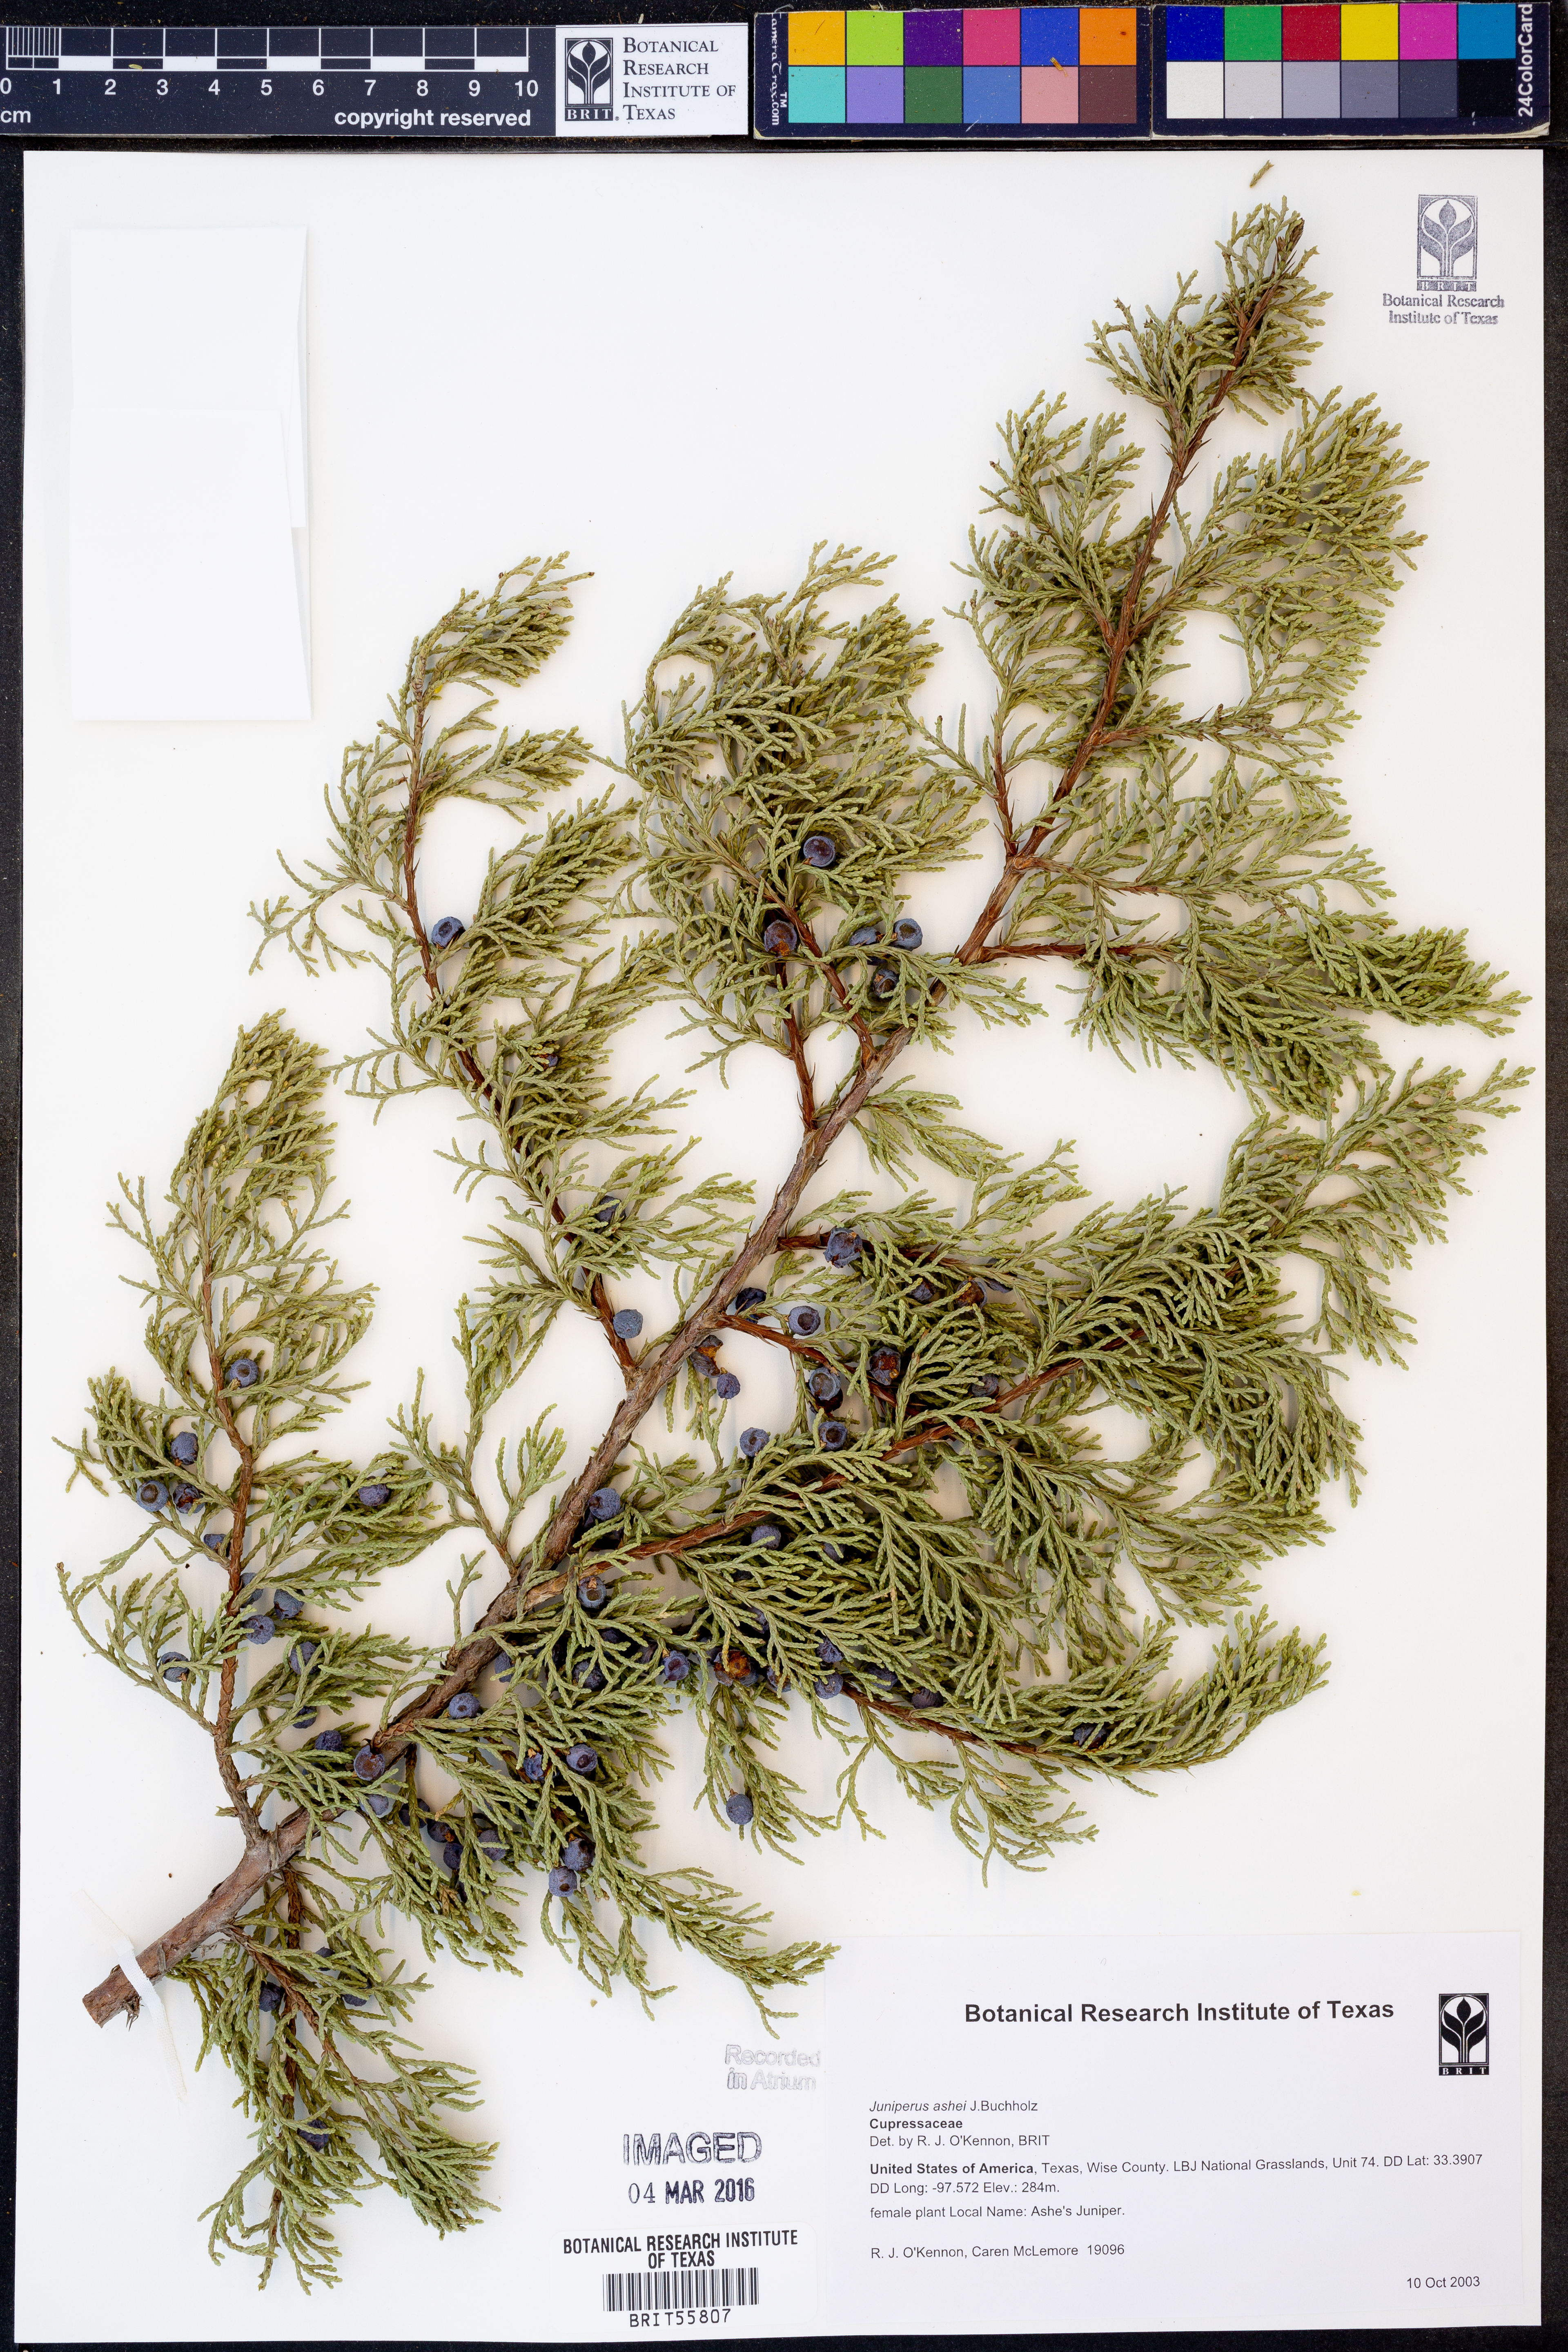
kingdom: Plantae
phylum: Tracheophyta
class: Pinopsida
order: Pinales
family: Cupressaceae
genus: Juniperus
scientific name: Juniperus ashei
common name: Mexican juniper
